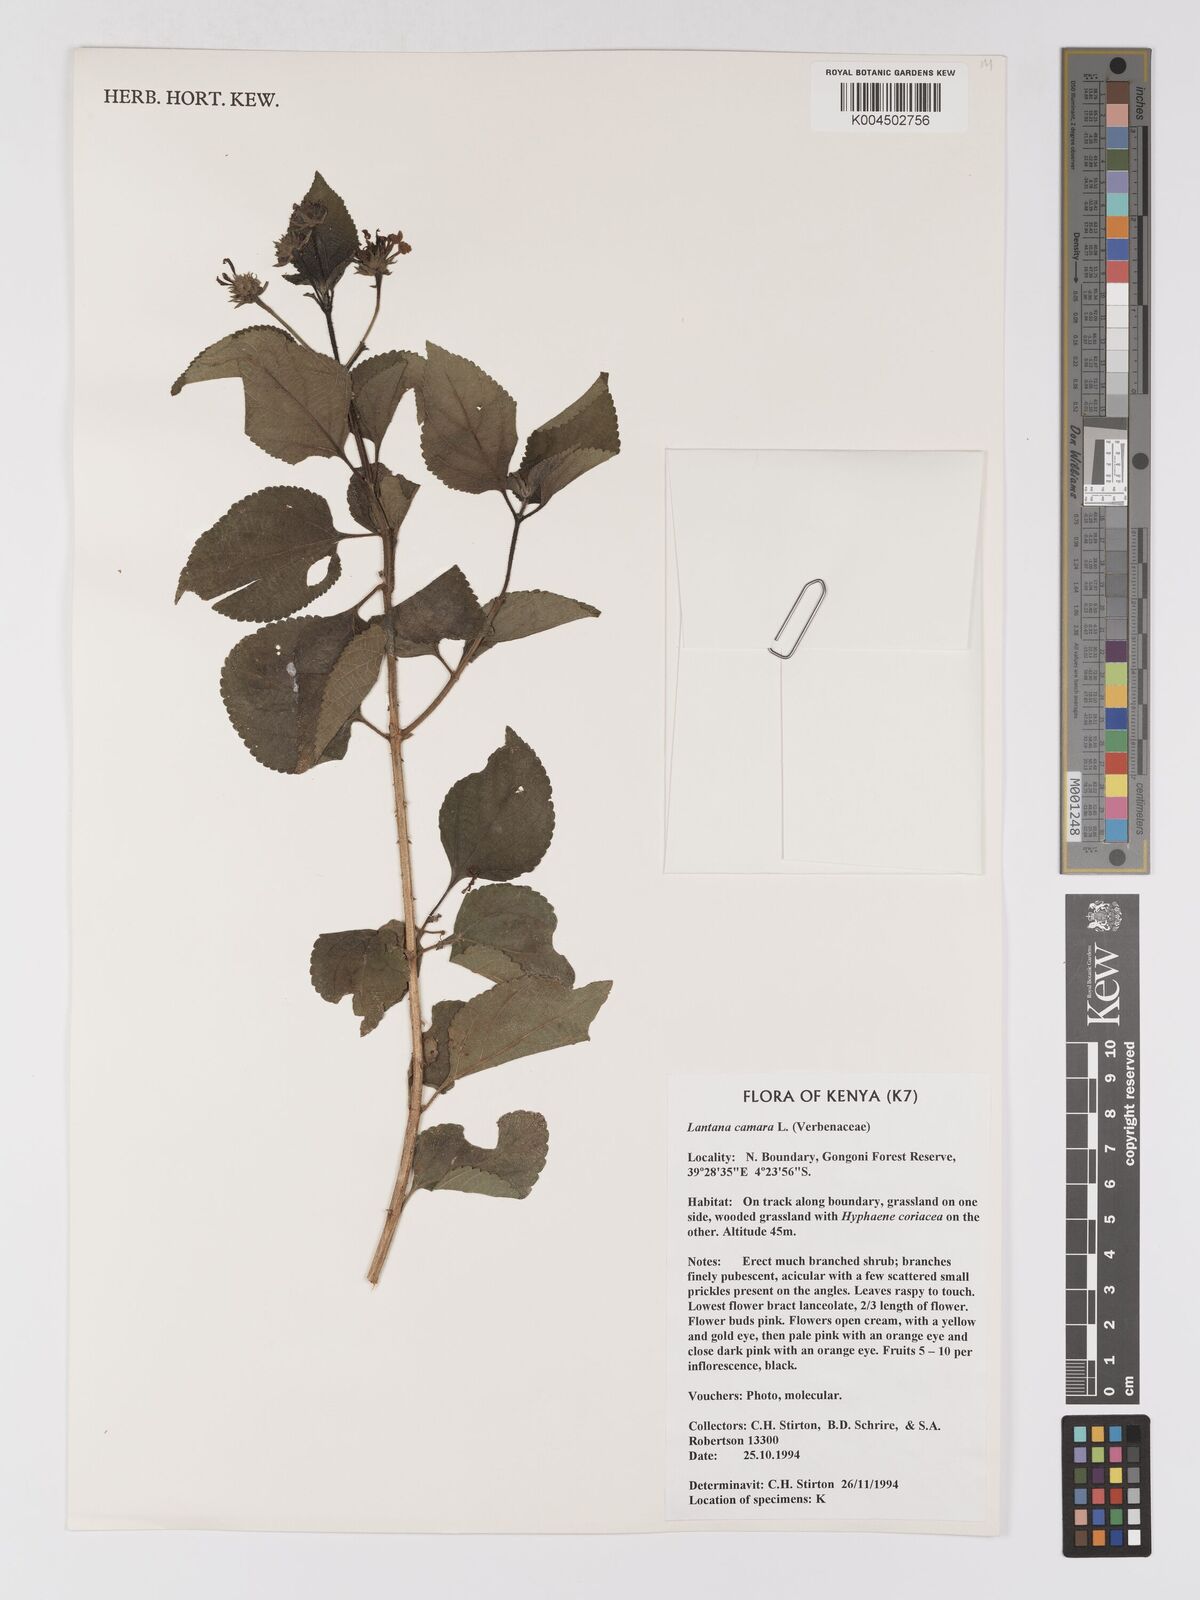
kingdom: Plantae
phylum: Tracheophyta
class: Magnoliopsida
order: Lamiales
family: Verbenaceae
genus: Lantana
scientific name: Lantana camara
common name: Lantana
